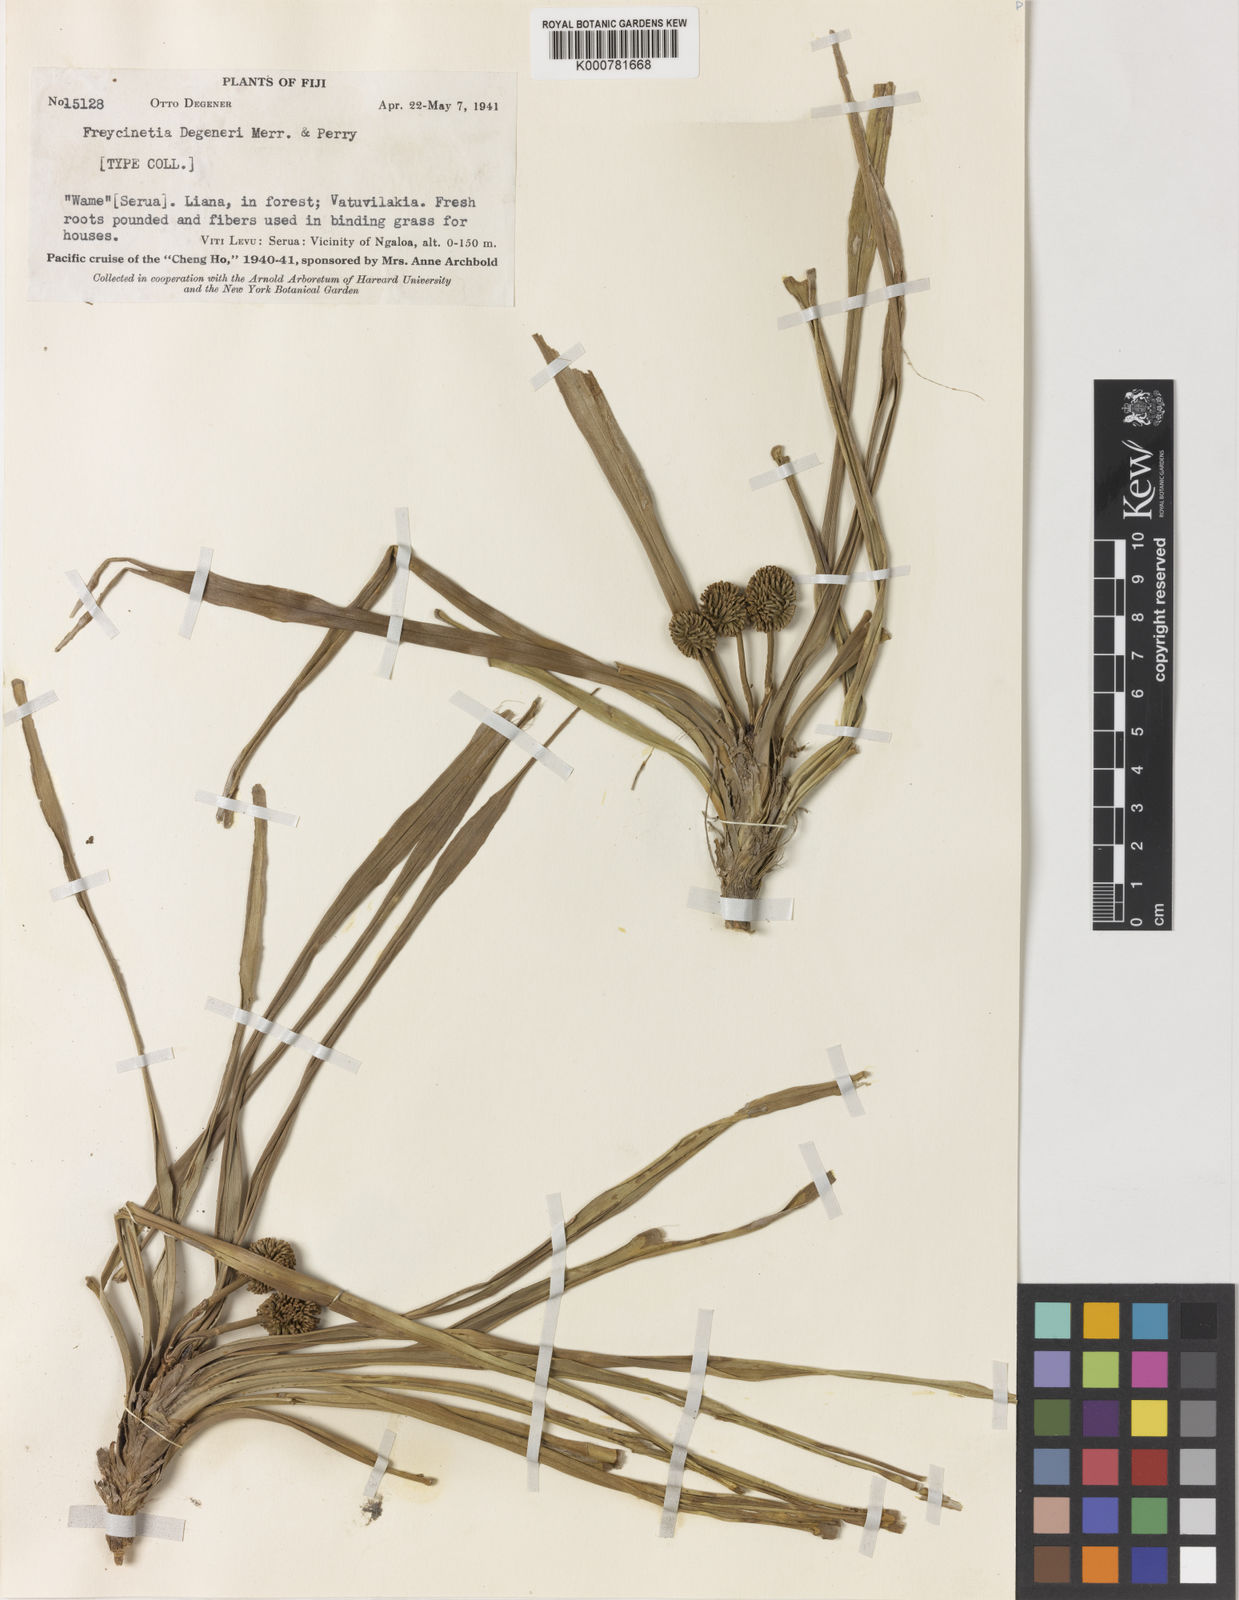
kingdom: Plantae
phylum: Tracheophyta
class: Liliopsida
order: Pandanales
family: Pandanaceae
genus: Freycinetia
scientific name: Freycinetia hombronii
